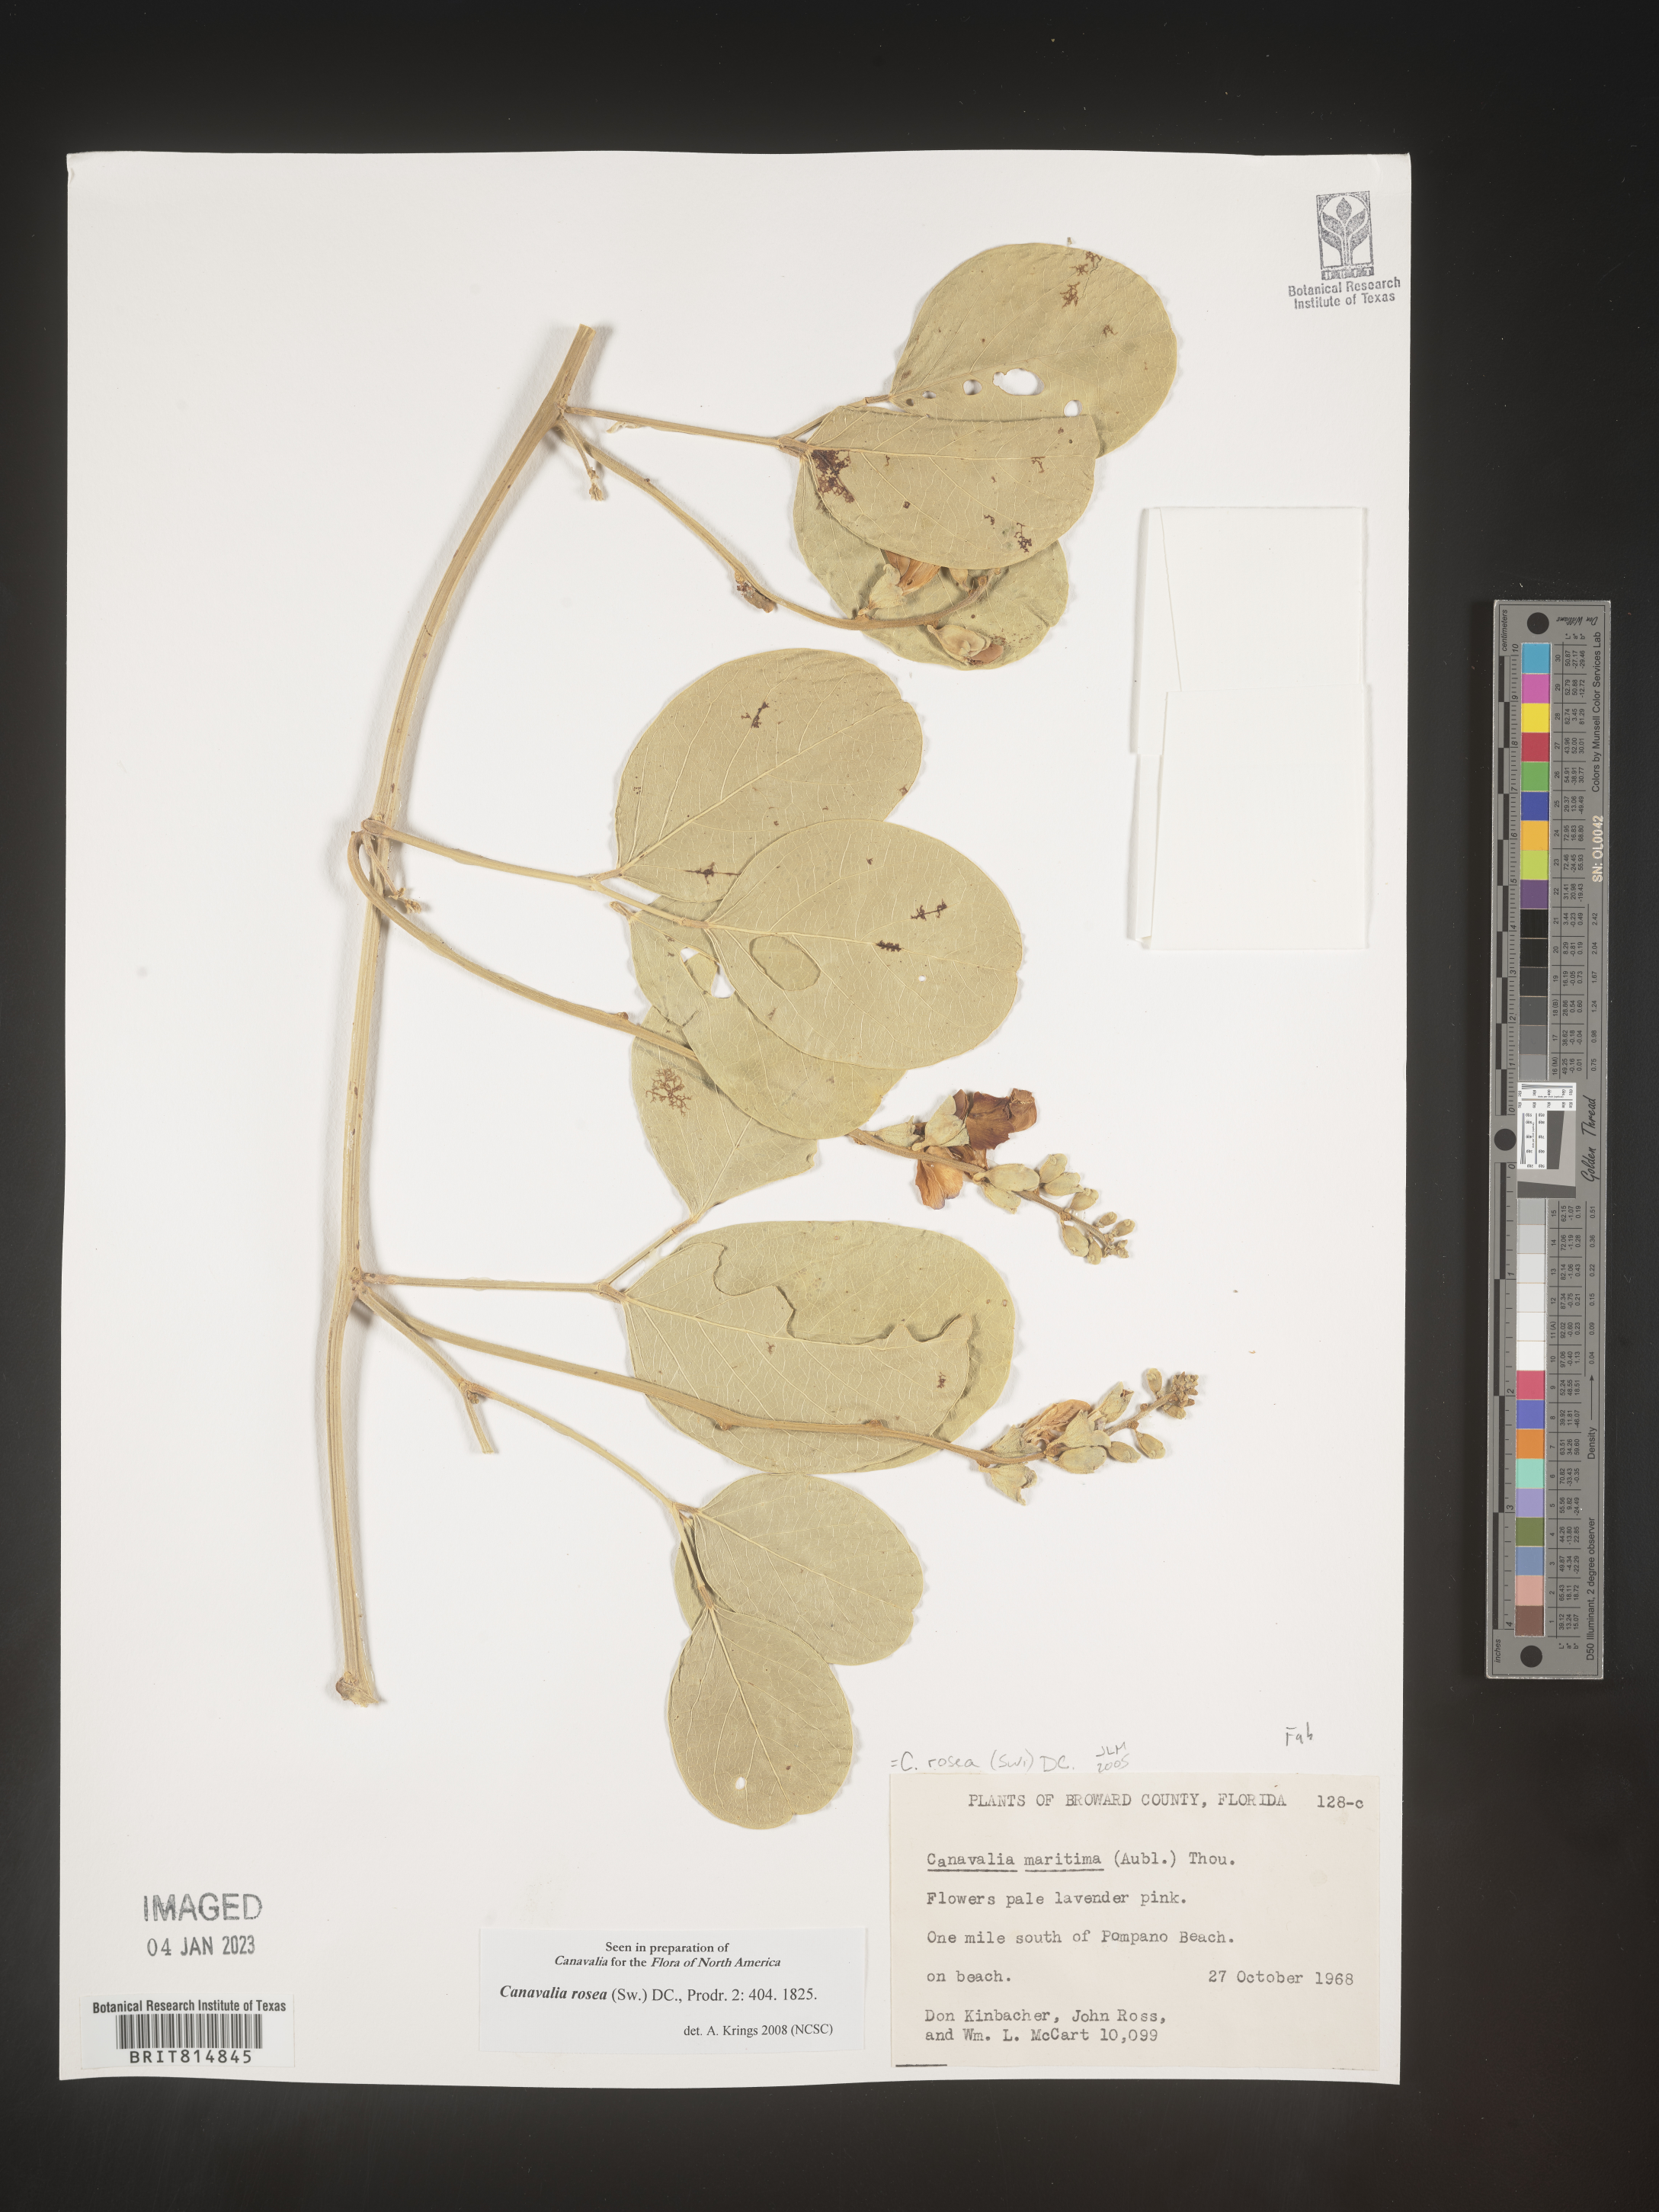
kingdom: Plantae
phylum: Tracheophyta
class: Magnoliopsida
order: Fabales
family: Fabaceae
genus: Canavalia
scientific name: Canavalia
